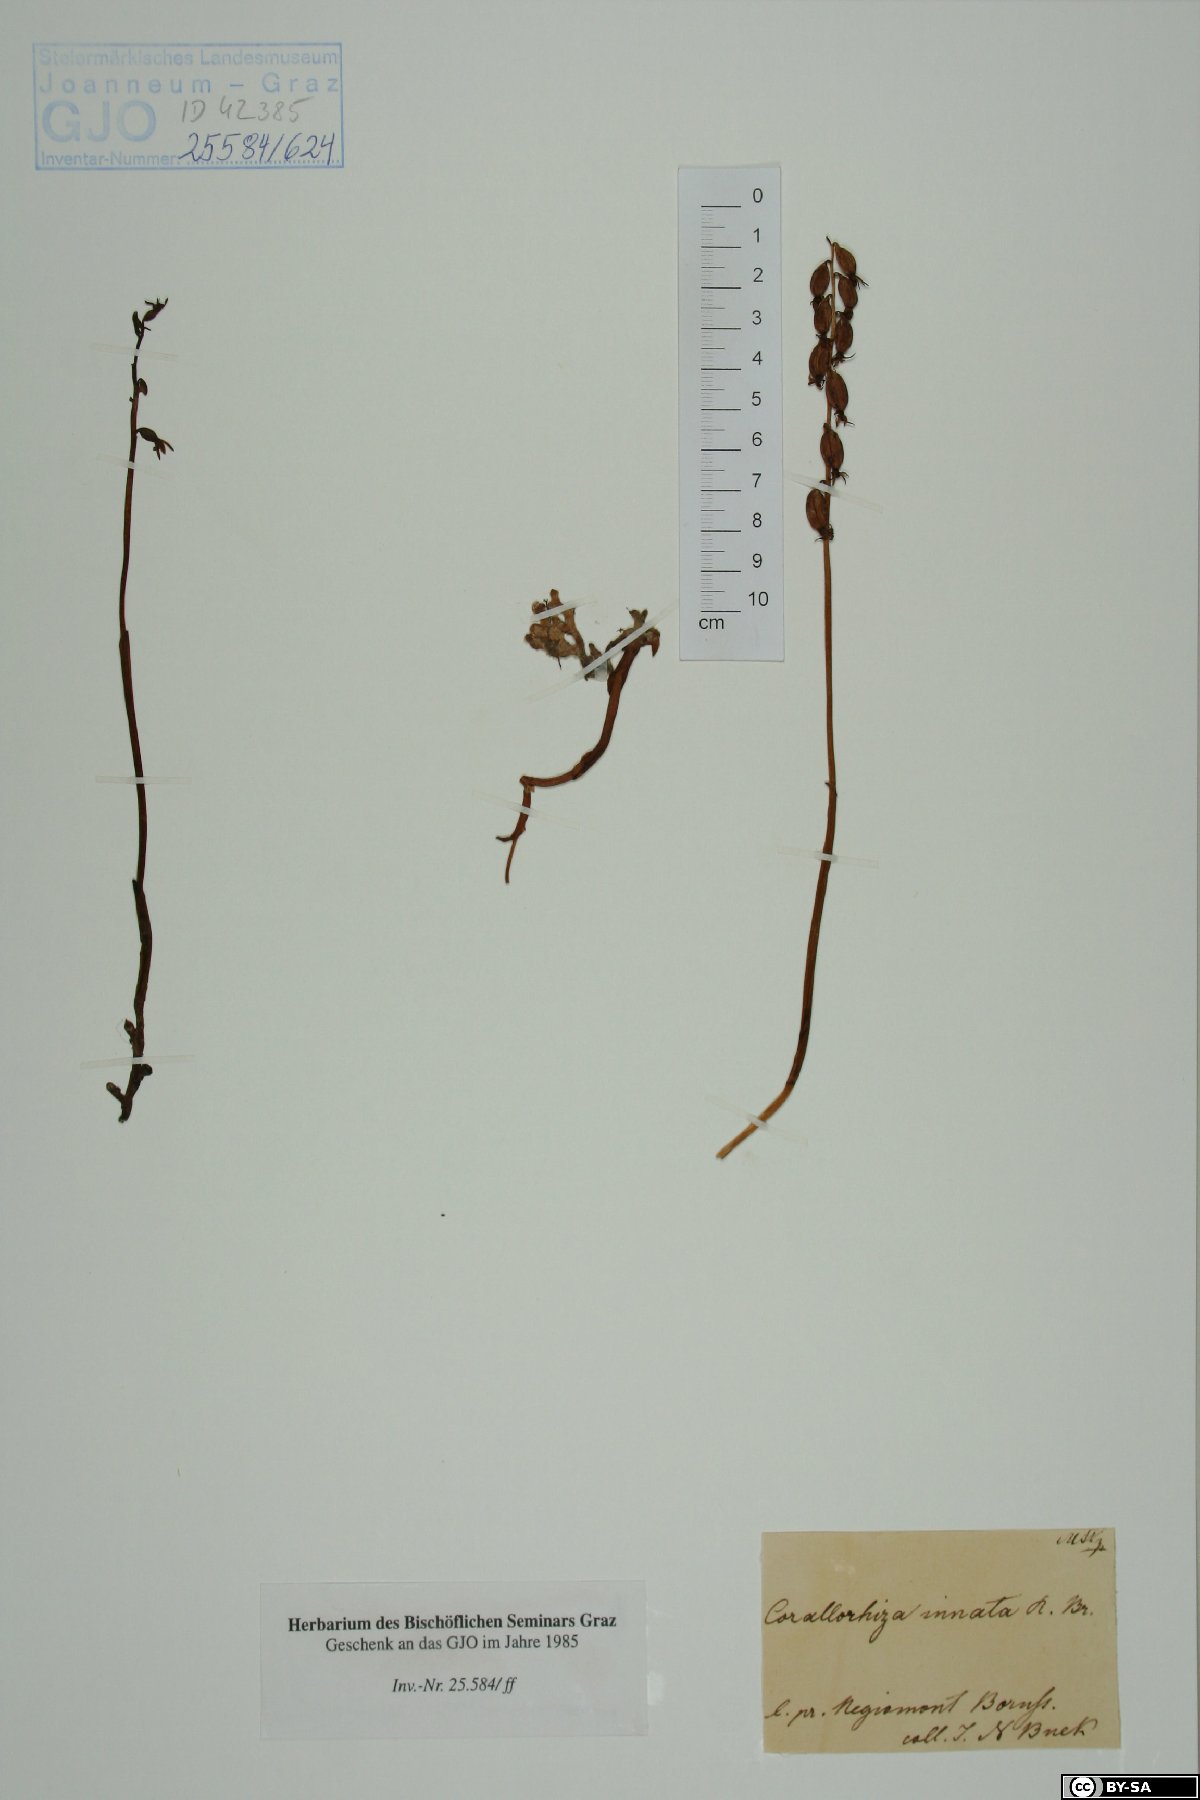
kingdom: Plantae
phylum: Tracheophyta
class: Liliopsida
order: Asparagales
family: Orchidaceae
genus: Corallorhiza
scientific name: Corallorhiza trifida
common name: Yellow coralroot
